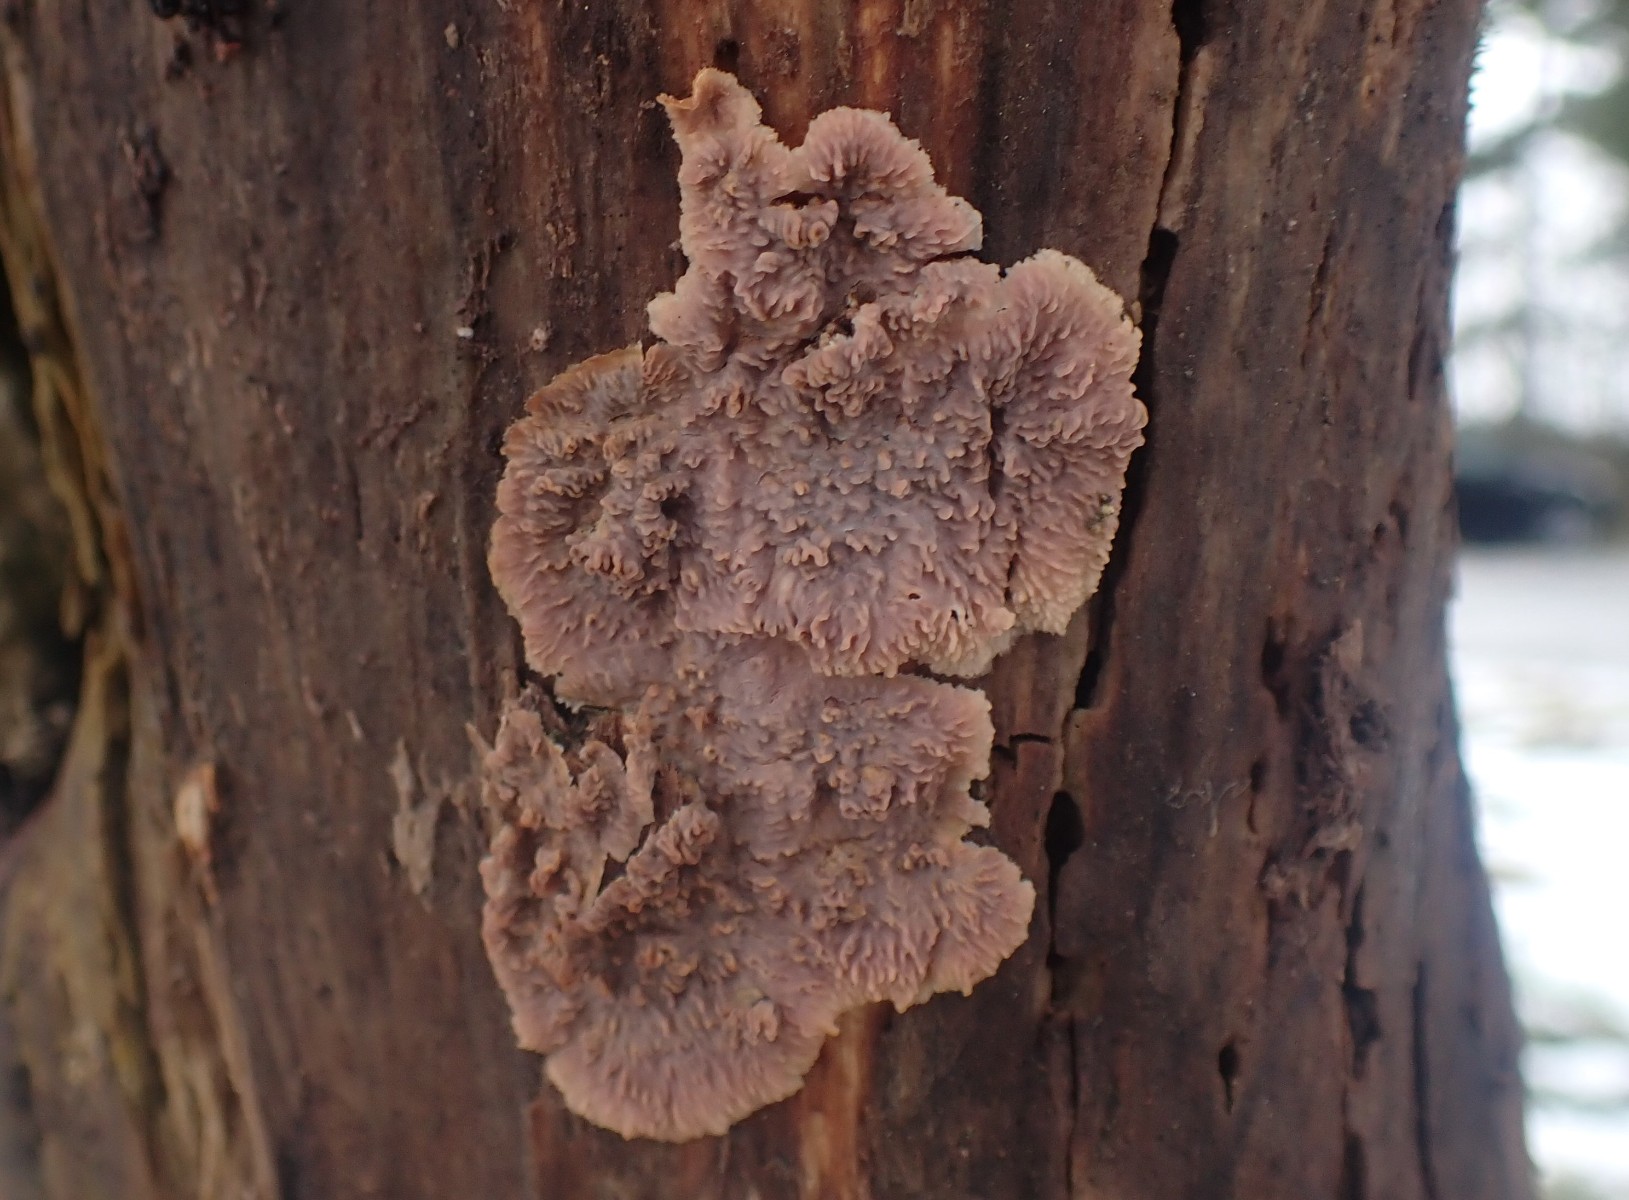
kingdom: Fungi
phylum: Basidiomycota
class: Agaricomycetes
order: Polyporales
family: Meruliaceae
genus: Phlebia
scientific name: Phlebia radiata
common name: stråle-åresvamp
